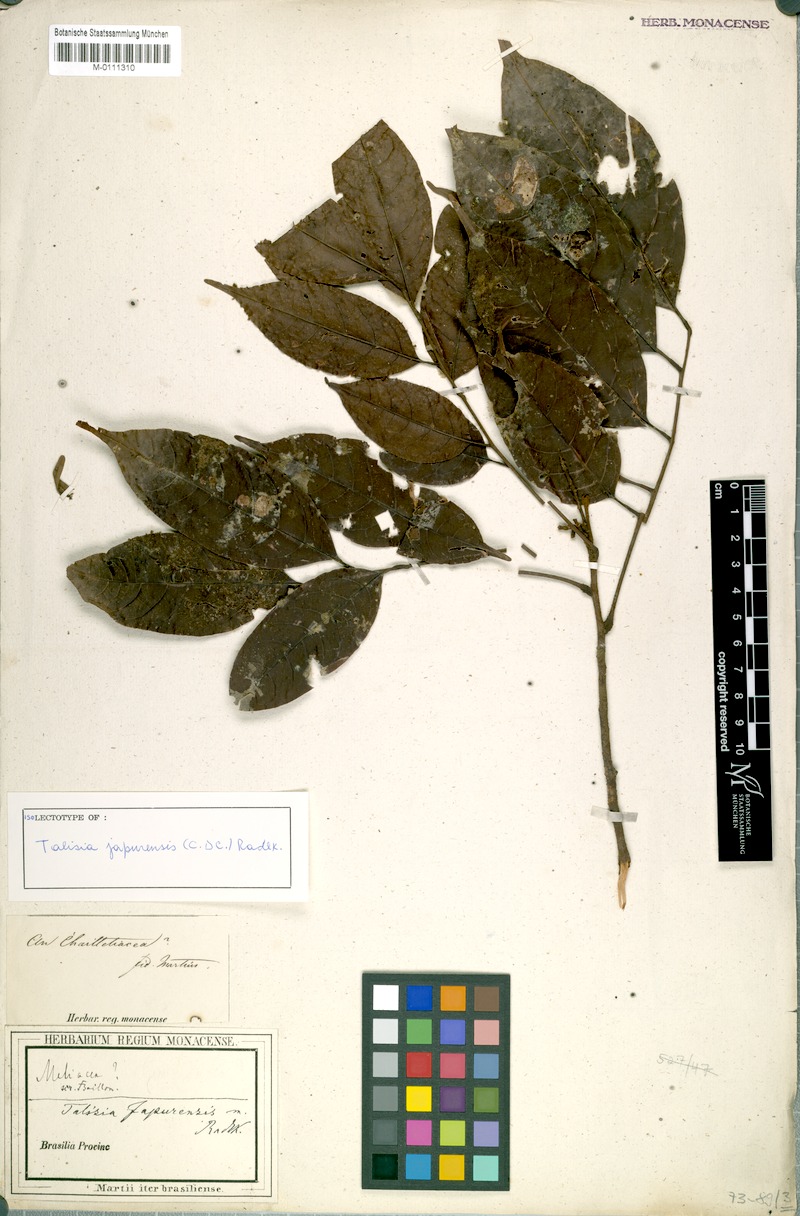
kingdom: Plantae
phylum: Tracheophyta
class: Magnoliopsida
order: Sapindales
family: Sapindaceae
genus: Talisia
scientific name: Talisia japurensis
